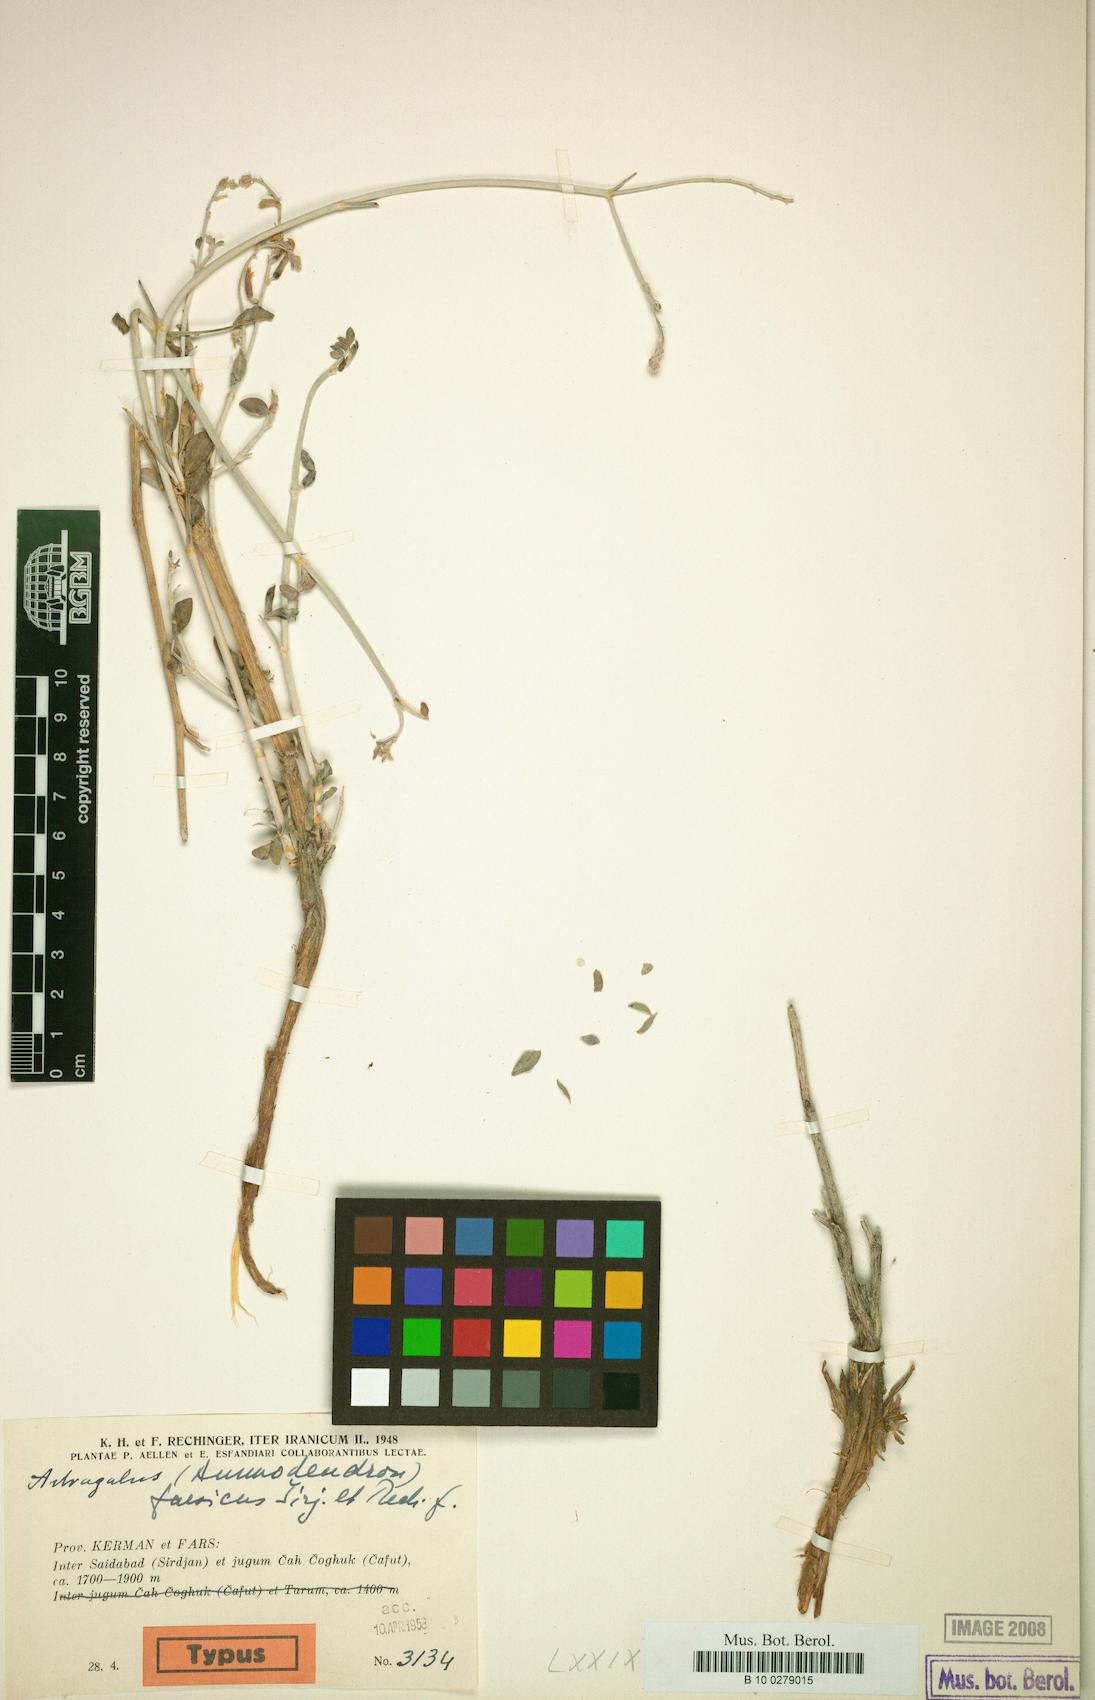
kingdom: Plantae
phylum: Tracheophyta
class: Magnoliopsida
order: Fabales
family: Fabaceae
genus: Astragalus
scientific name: Astragalus farsicus
